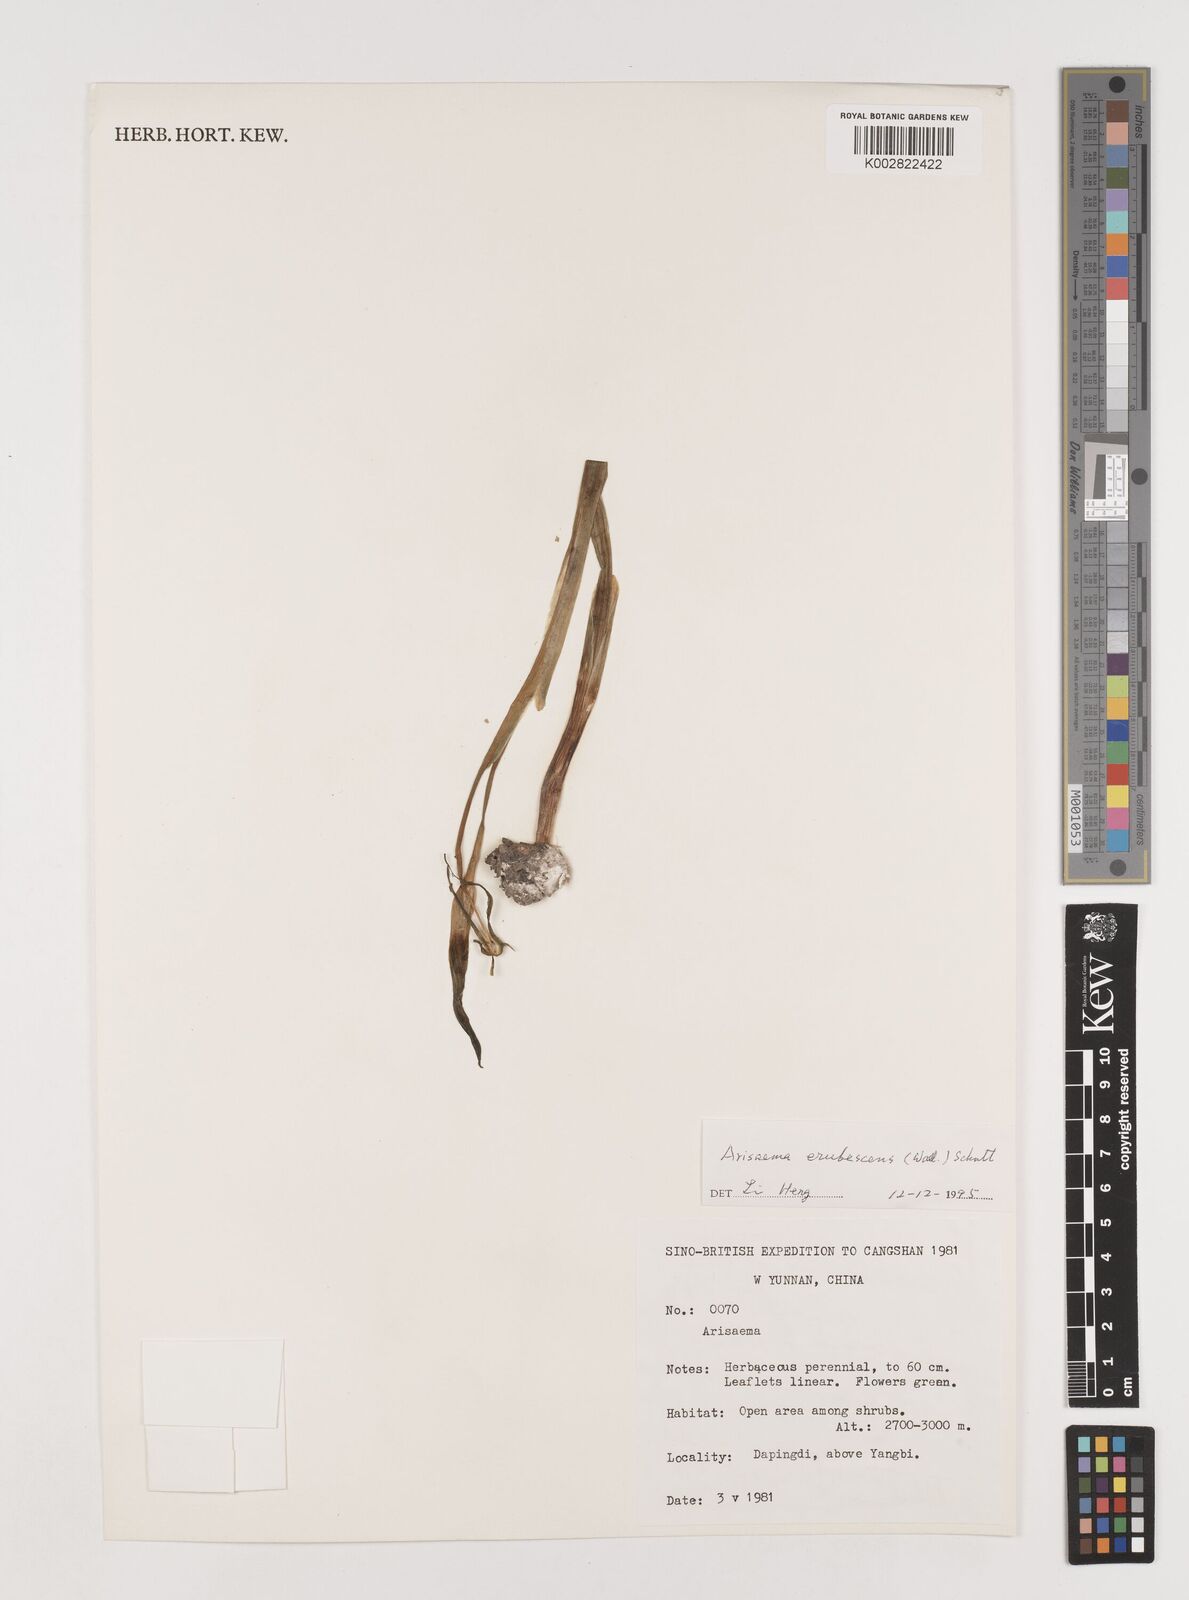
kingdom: Plantae
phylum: Tracheophyta
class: Liliopsida
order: Alismatales
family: Araceae
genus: Arisaema
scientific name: Arisaema erubescens
